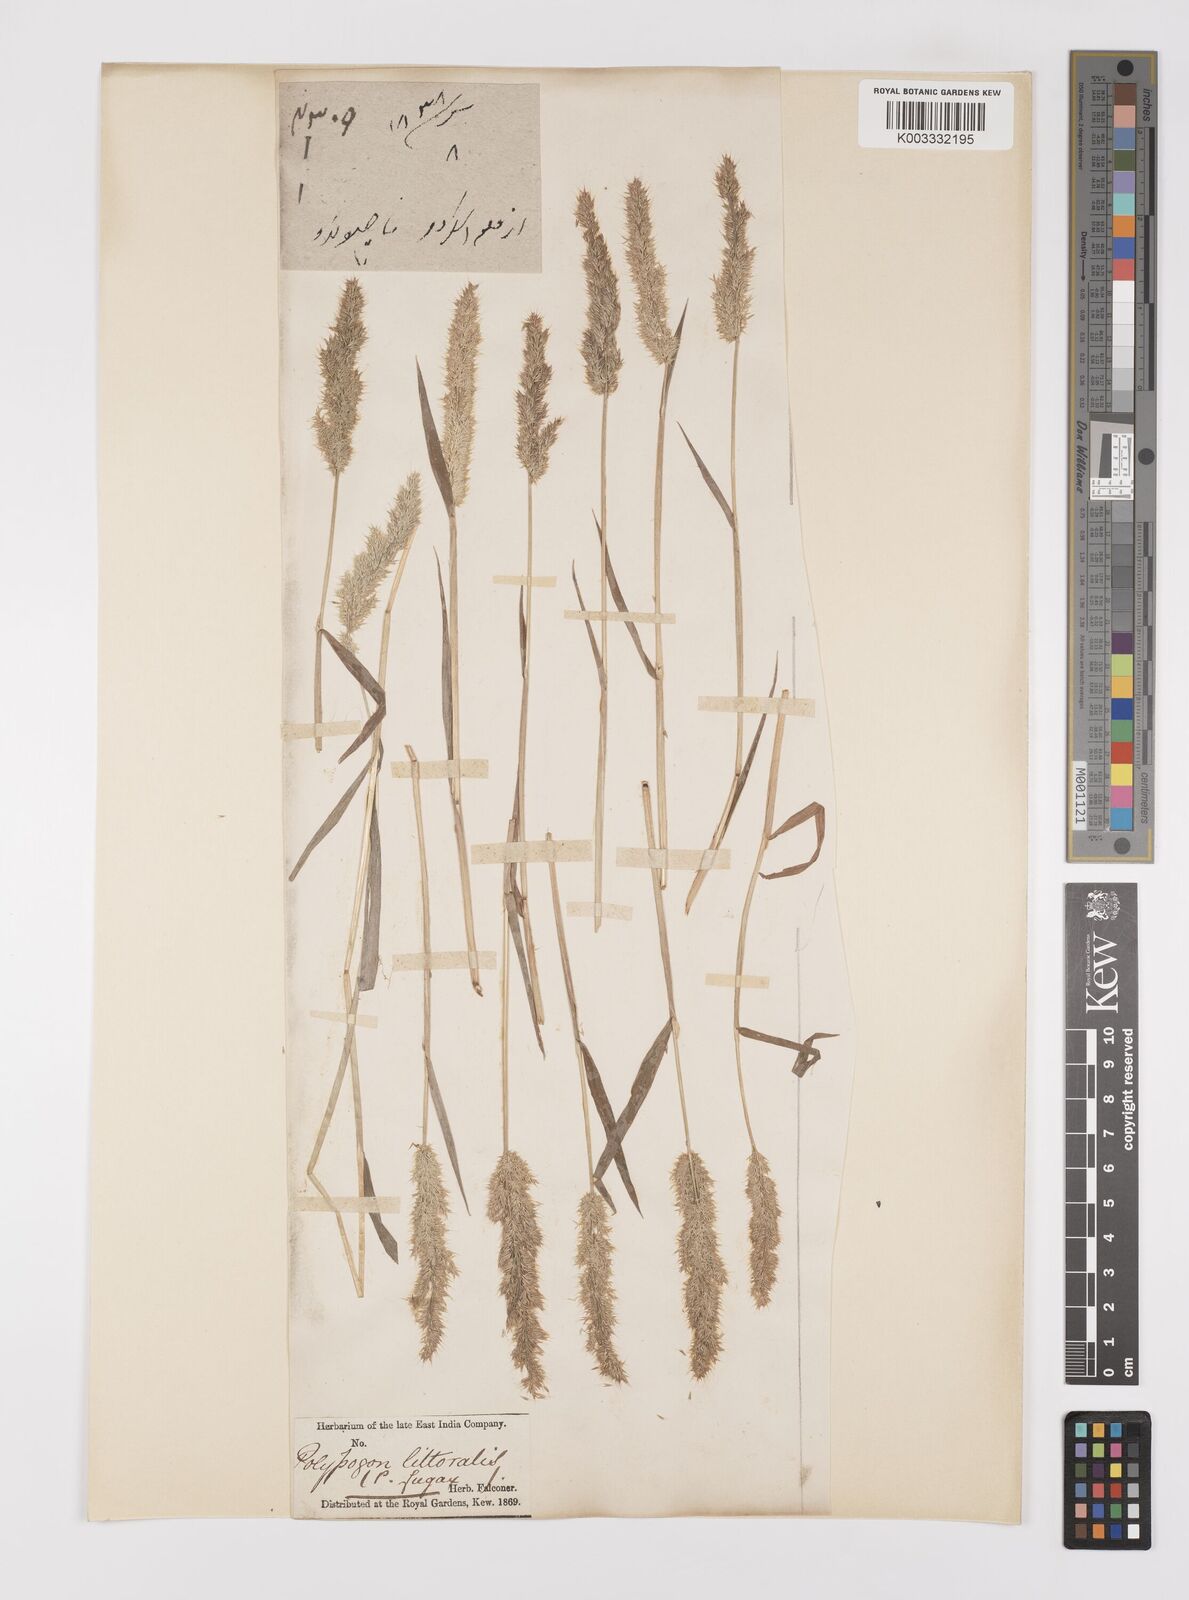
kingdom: Plantae
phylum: Tracheophyta
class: Liliopsida
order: Poales
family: Poaceae
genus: Polypogon
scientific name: Polypogon fugax
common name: Asia minor bluegrass
